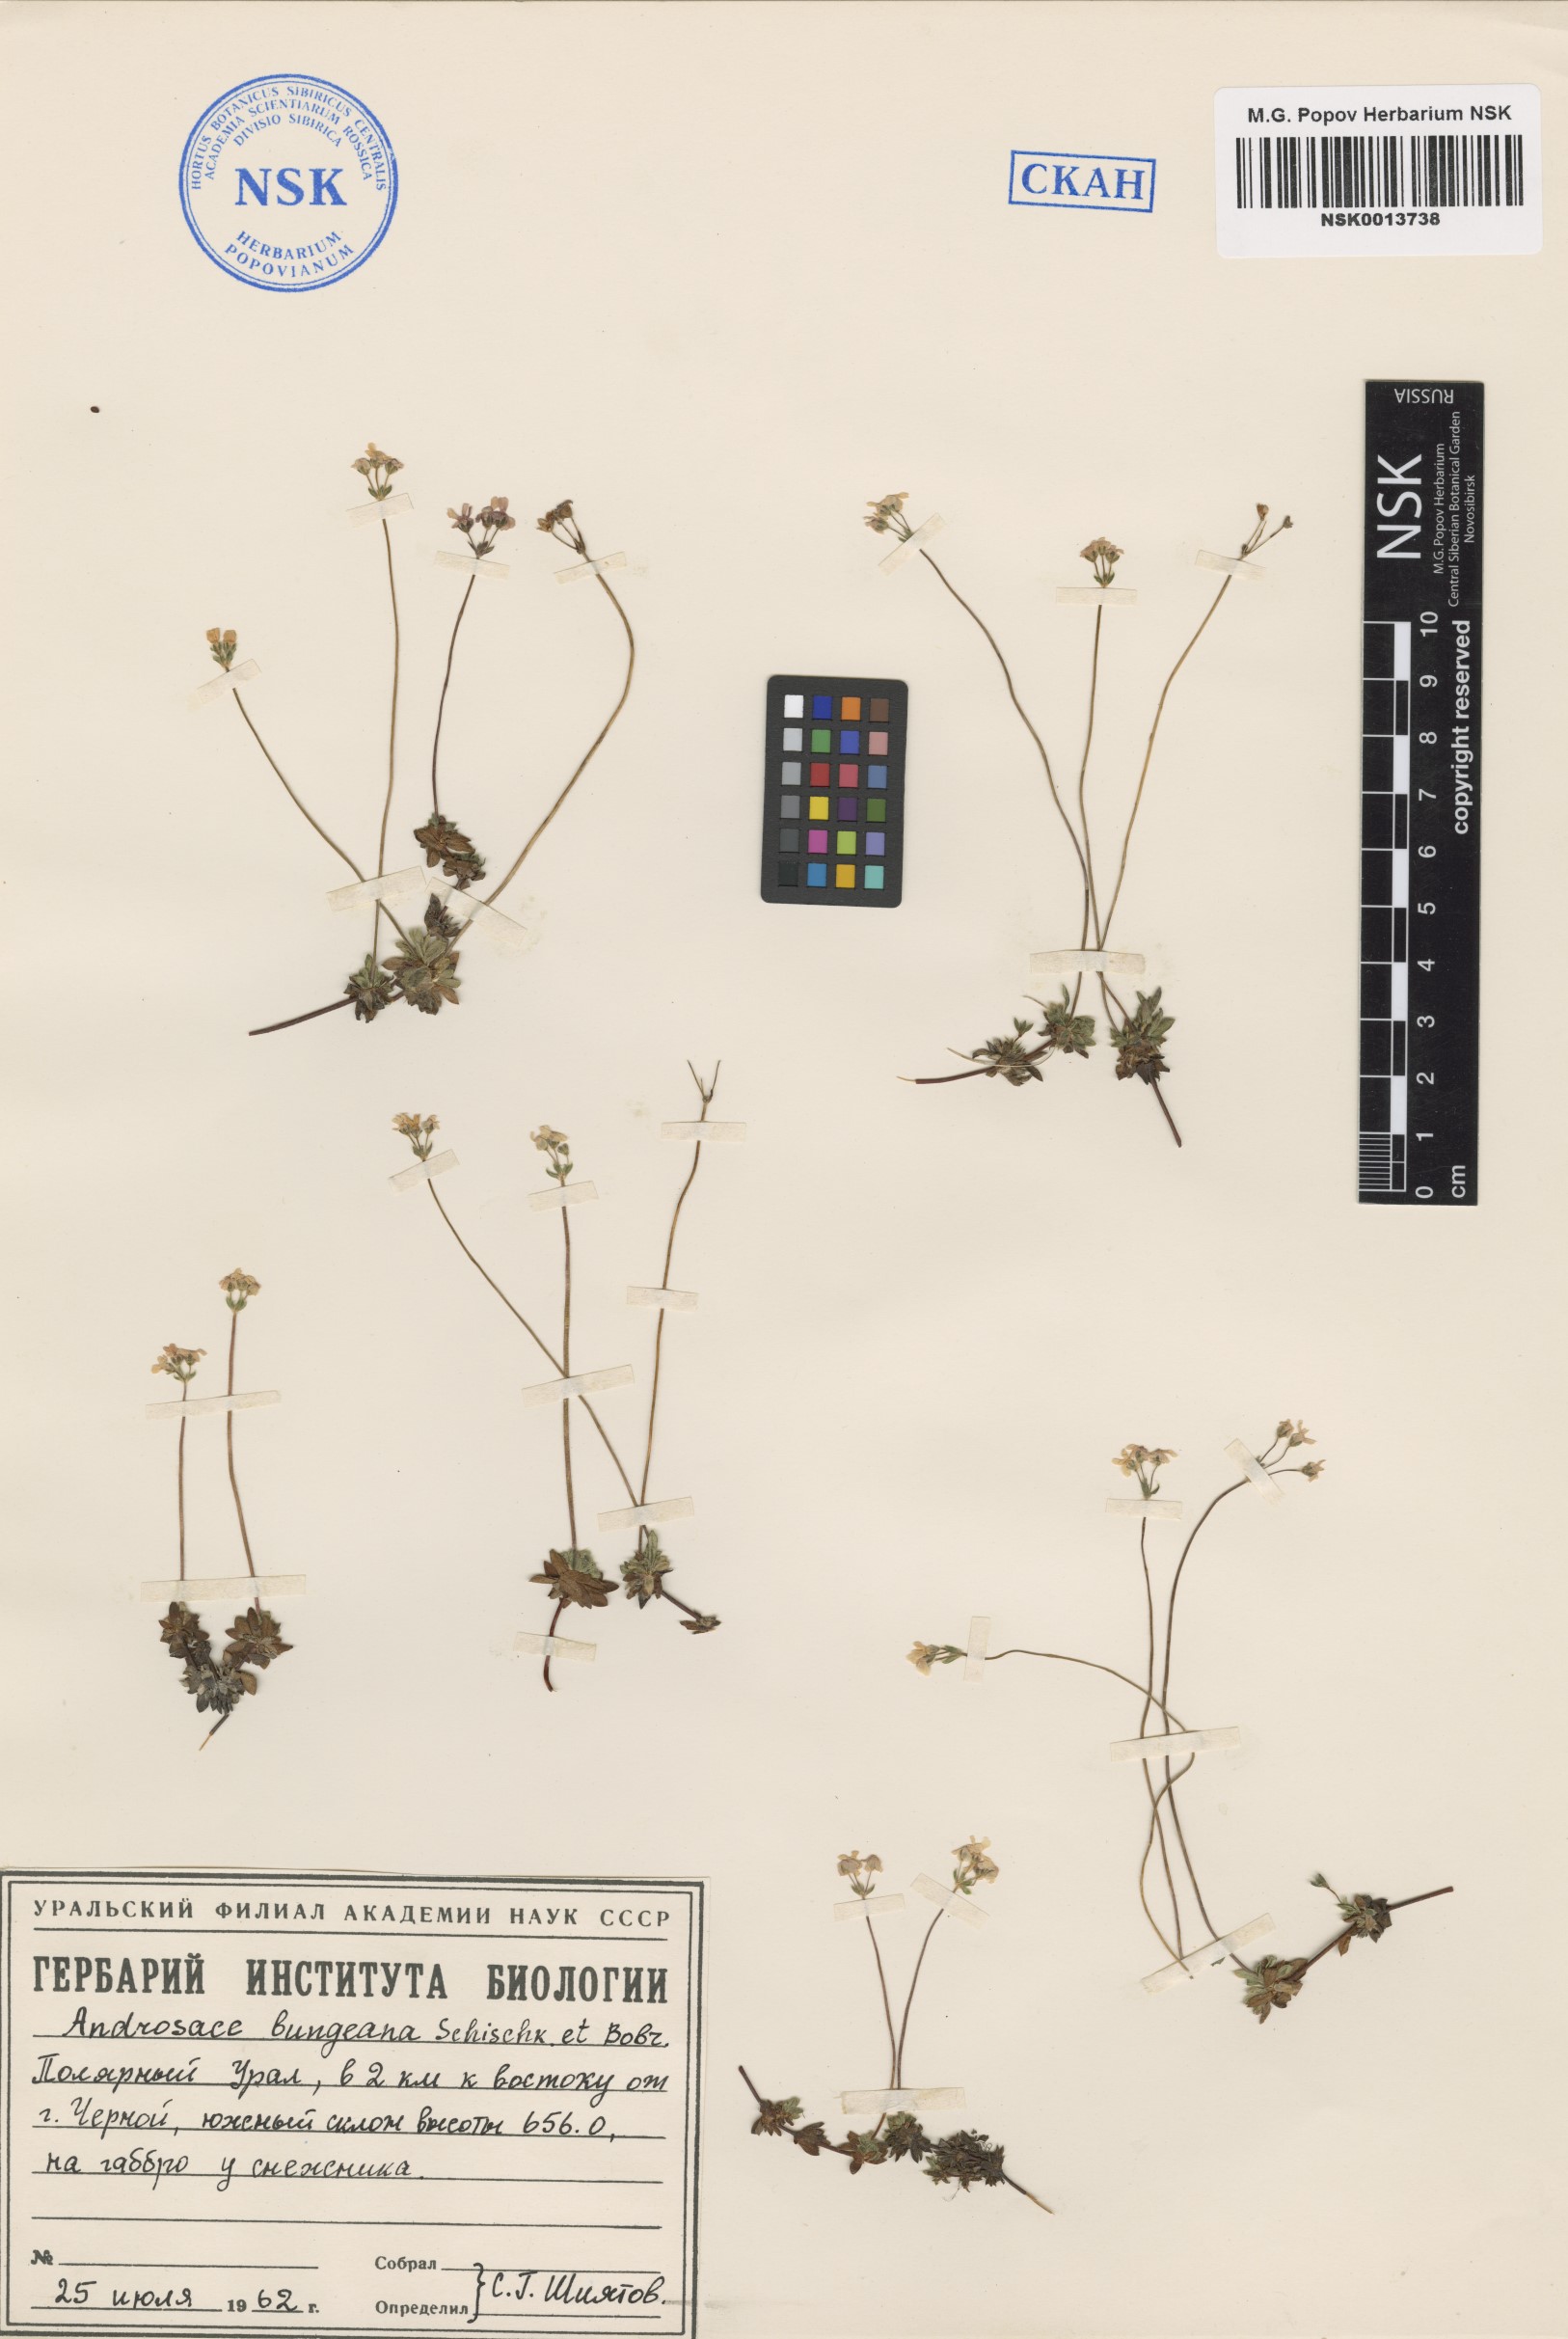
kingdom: Plantae
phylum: Tracheophyta
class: Magnoliopsida
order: Ericales
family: Primulaceae
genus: Androsace
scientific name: Androsace bungeana
